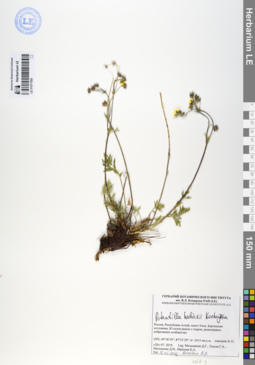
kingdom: Plantae
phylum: Tracheophyta
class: Magnoliopsida
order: Rosales
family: Rosaceae
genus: Potentilla
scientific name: Potentilla habievii
